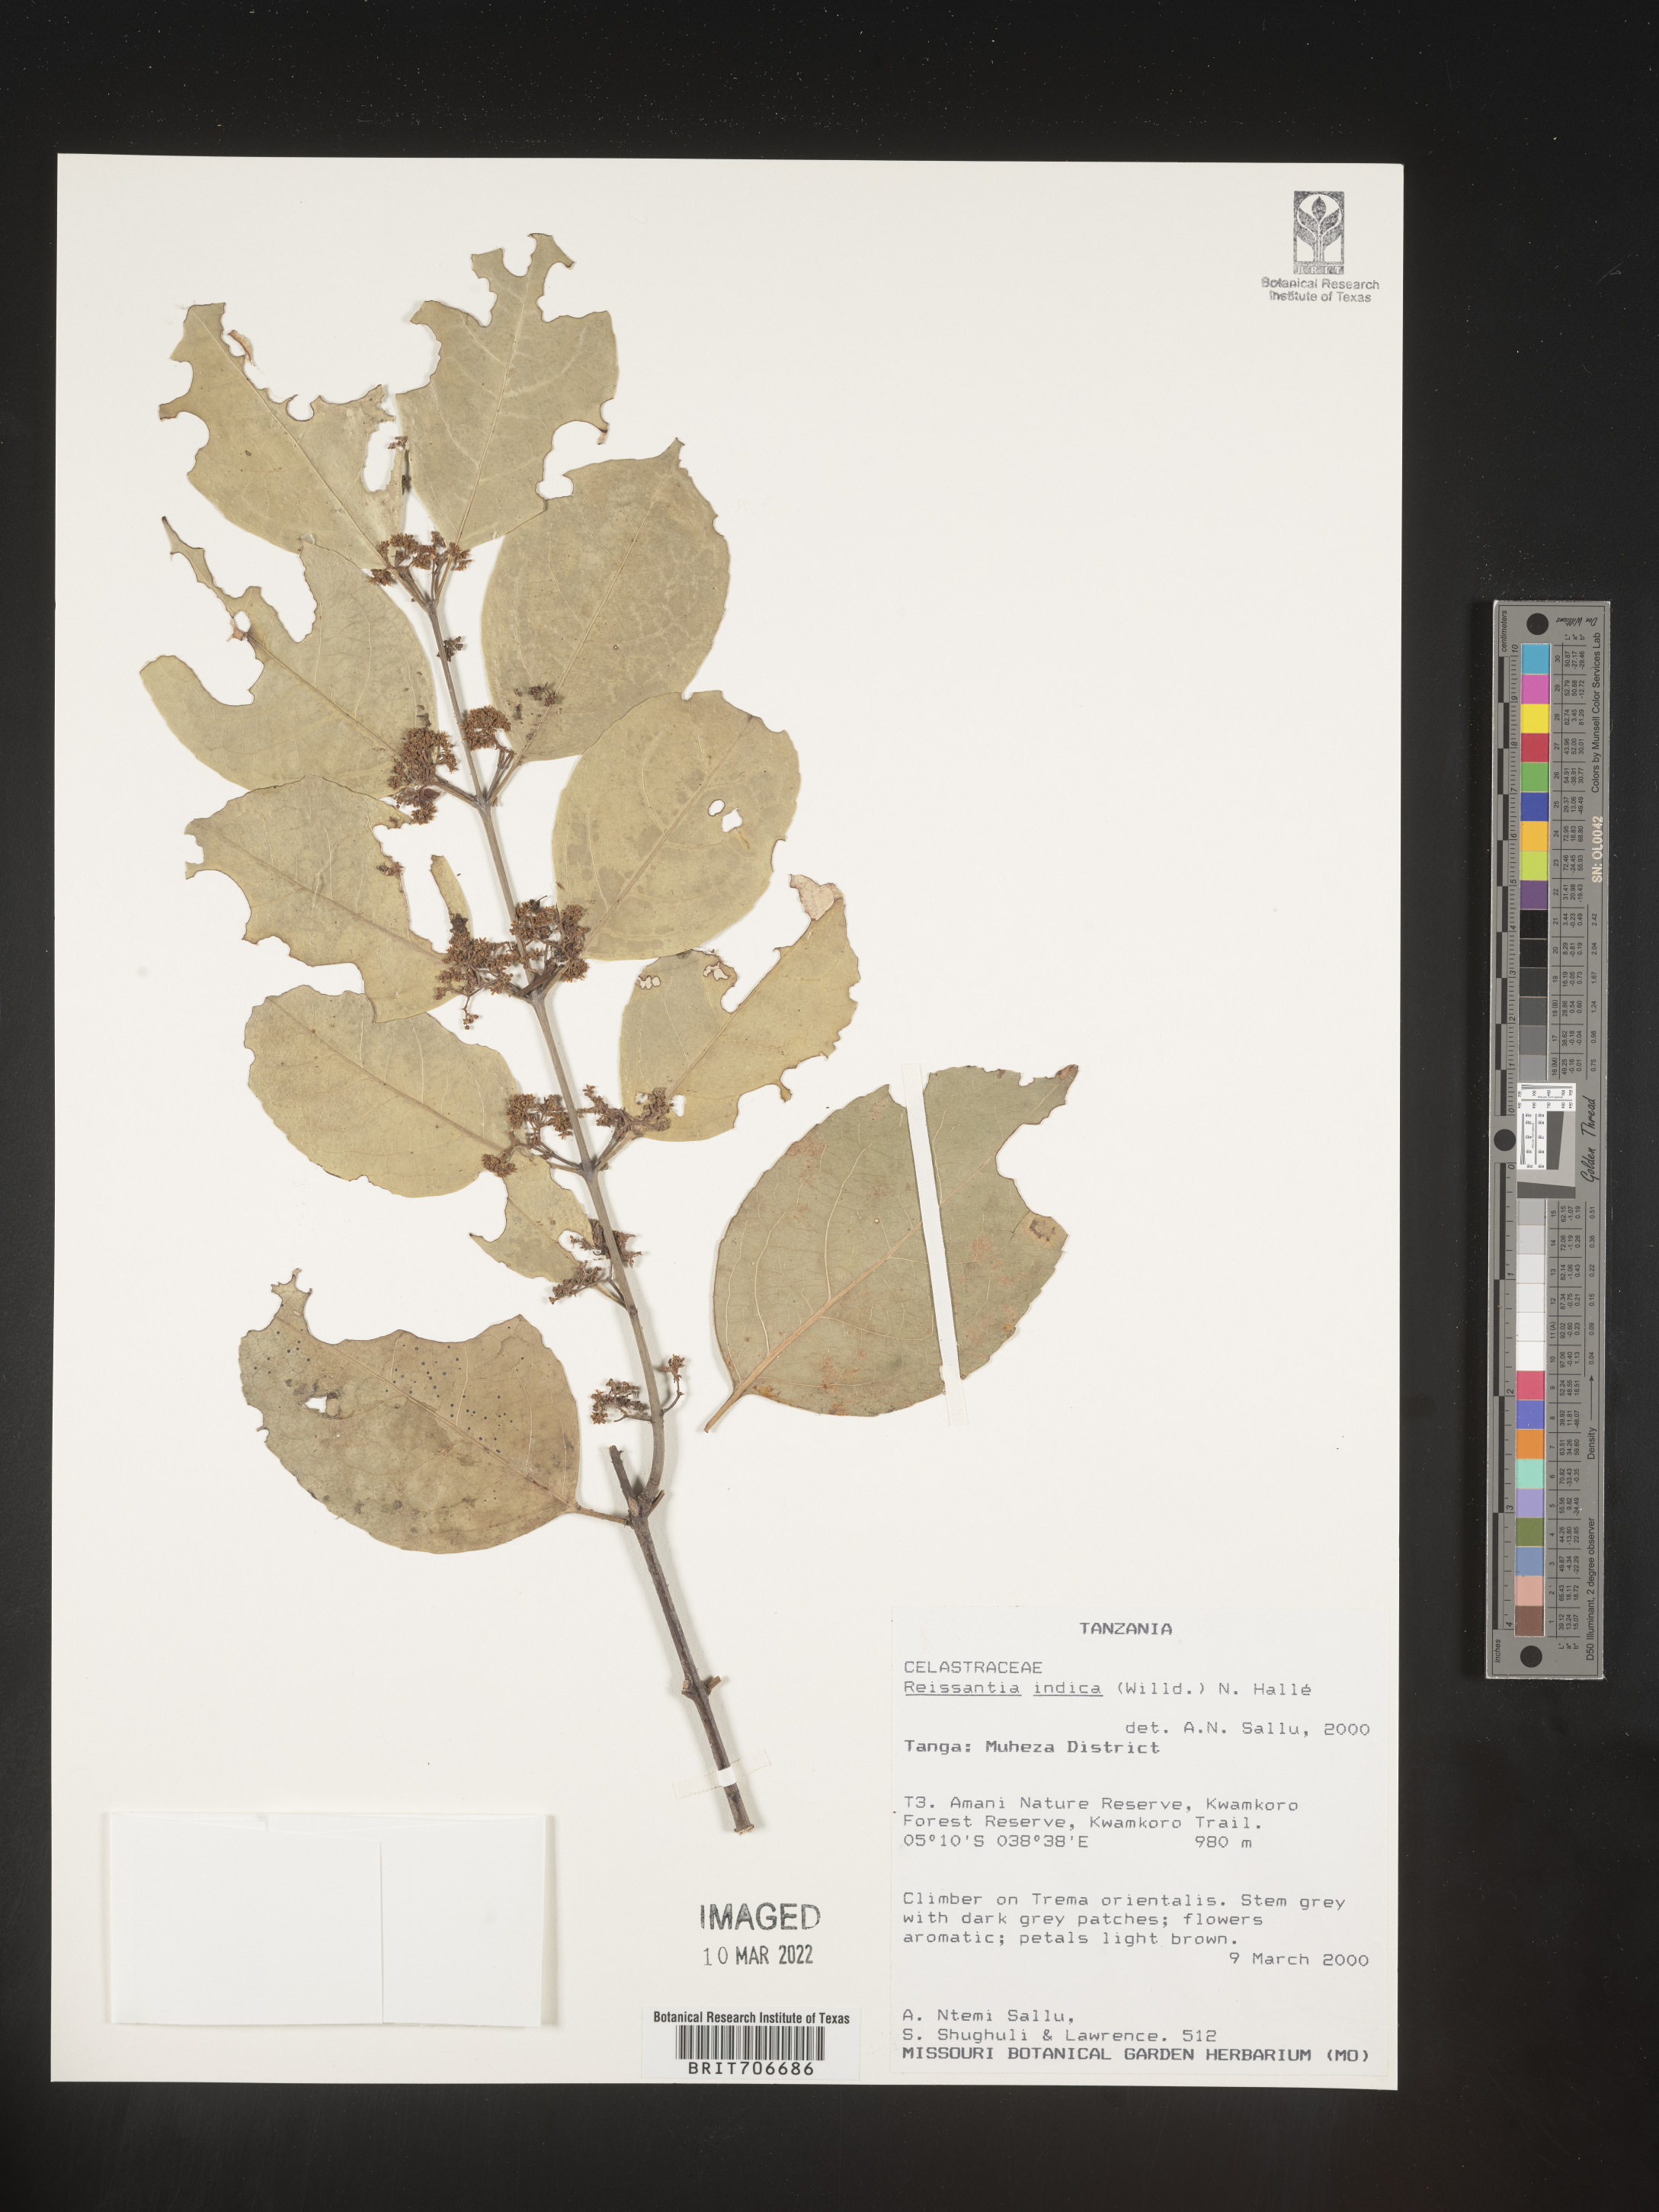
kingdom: Plantae
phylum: Tracheophyta
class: Magnoliopsida
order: Celastrales
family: Celastraceae
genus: Reissantia
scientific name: Reissantia
